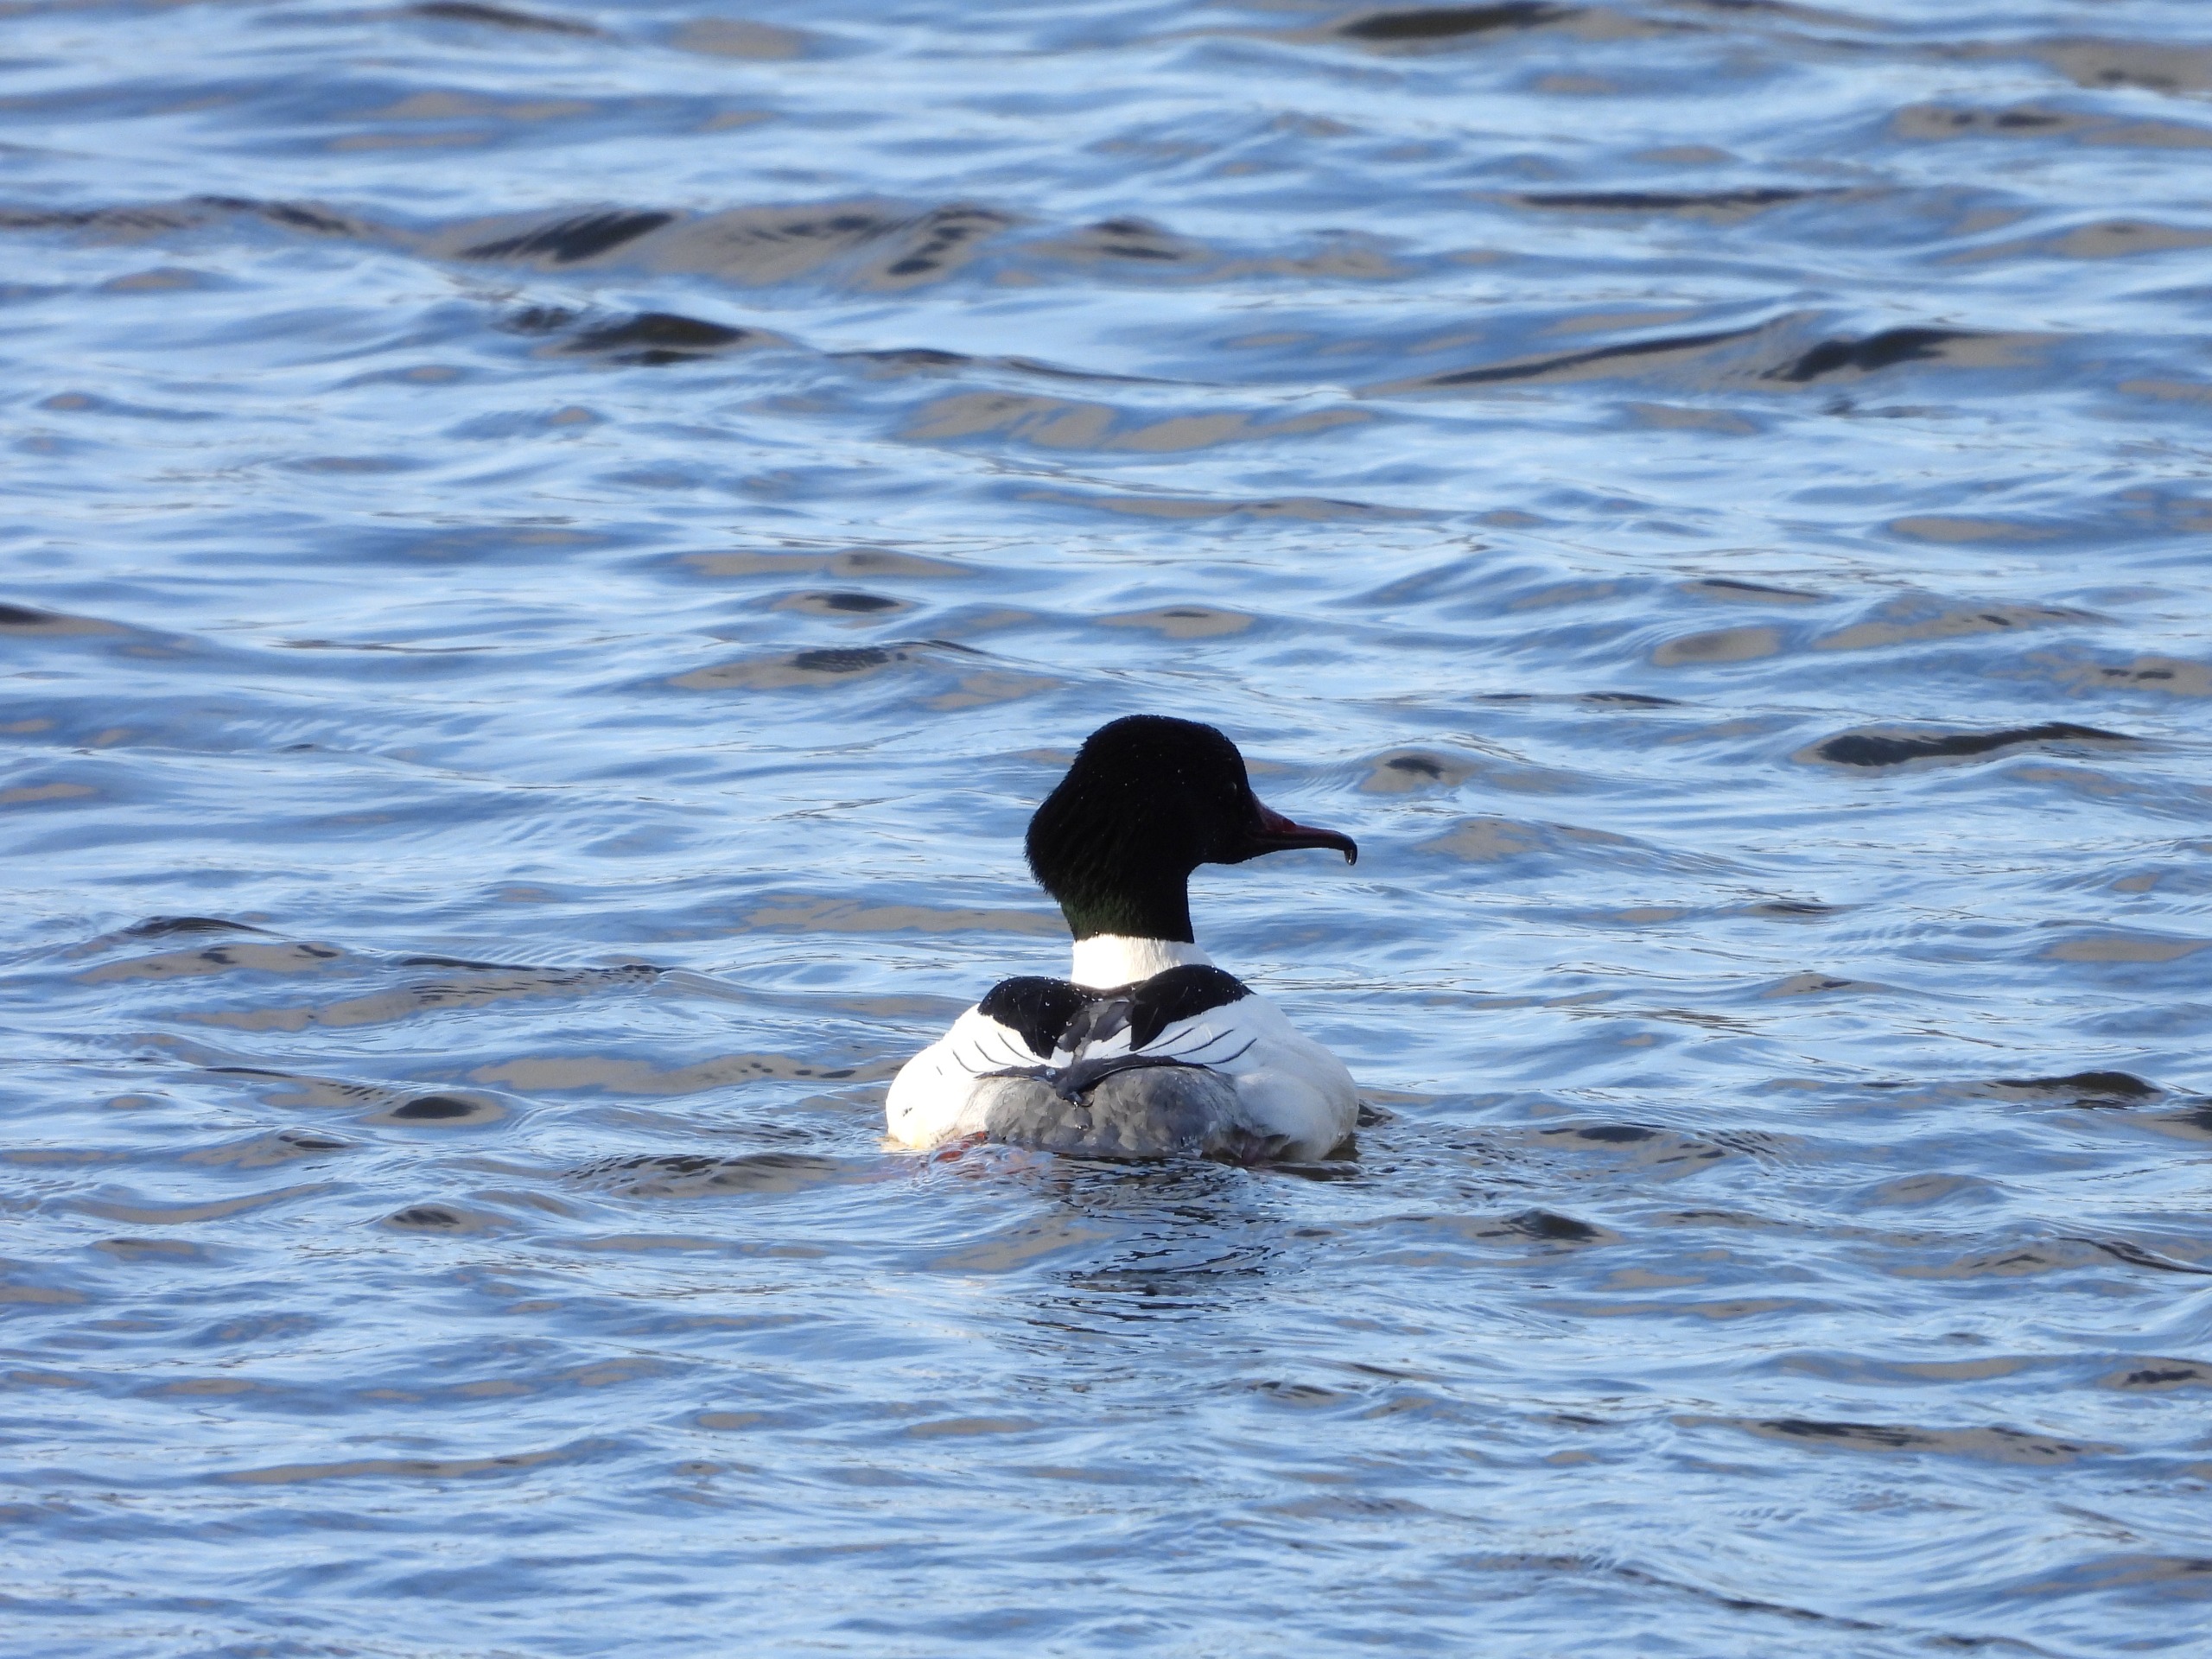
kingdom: Animalia
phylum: Chordata
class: Aves
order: Anseriformes
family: Anatidae
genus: Mergus
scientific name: Mergus merganser
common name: Stor skallesluger
